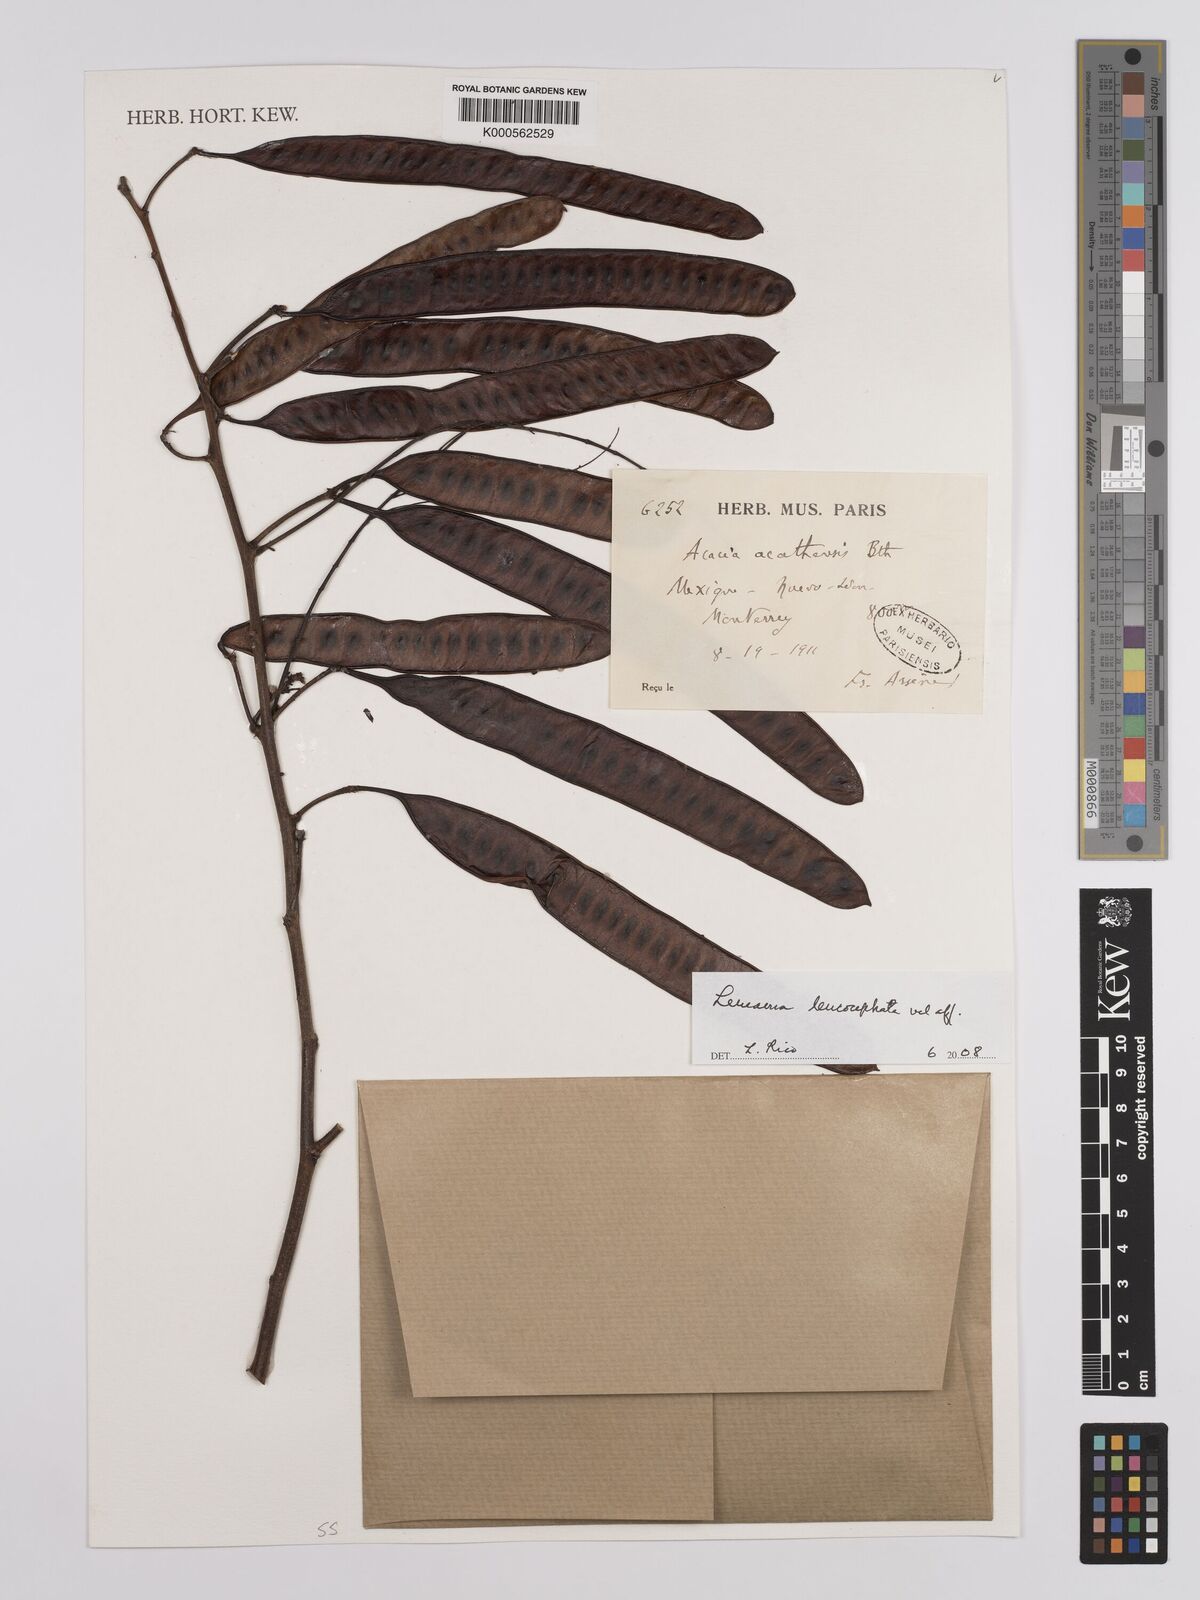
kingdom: Plantae
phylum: Tracheophyta
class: Magnoliopsida
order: Fabales
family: Fabaceae
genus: Leucaena
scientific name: Leucaena leucocephala
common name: White leadtree
